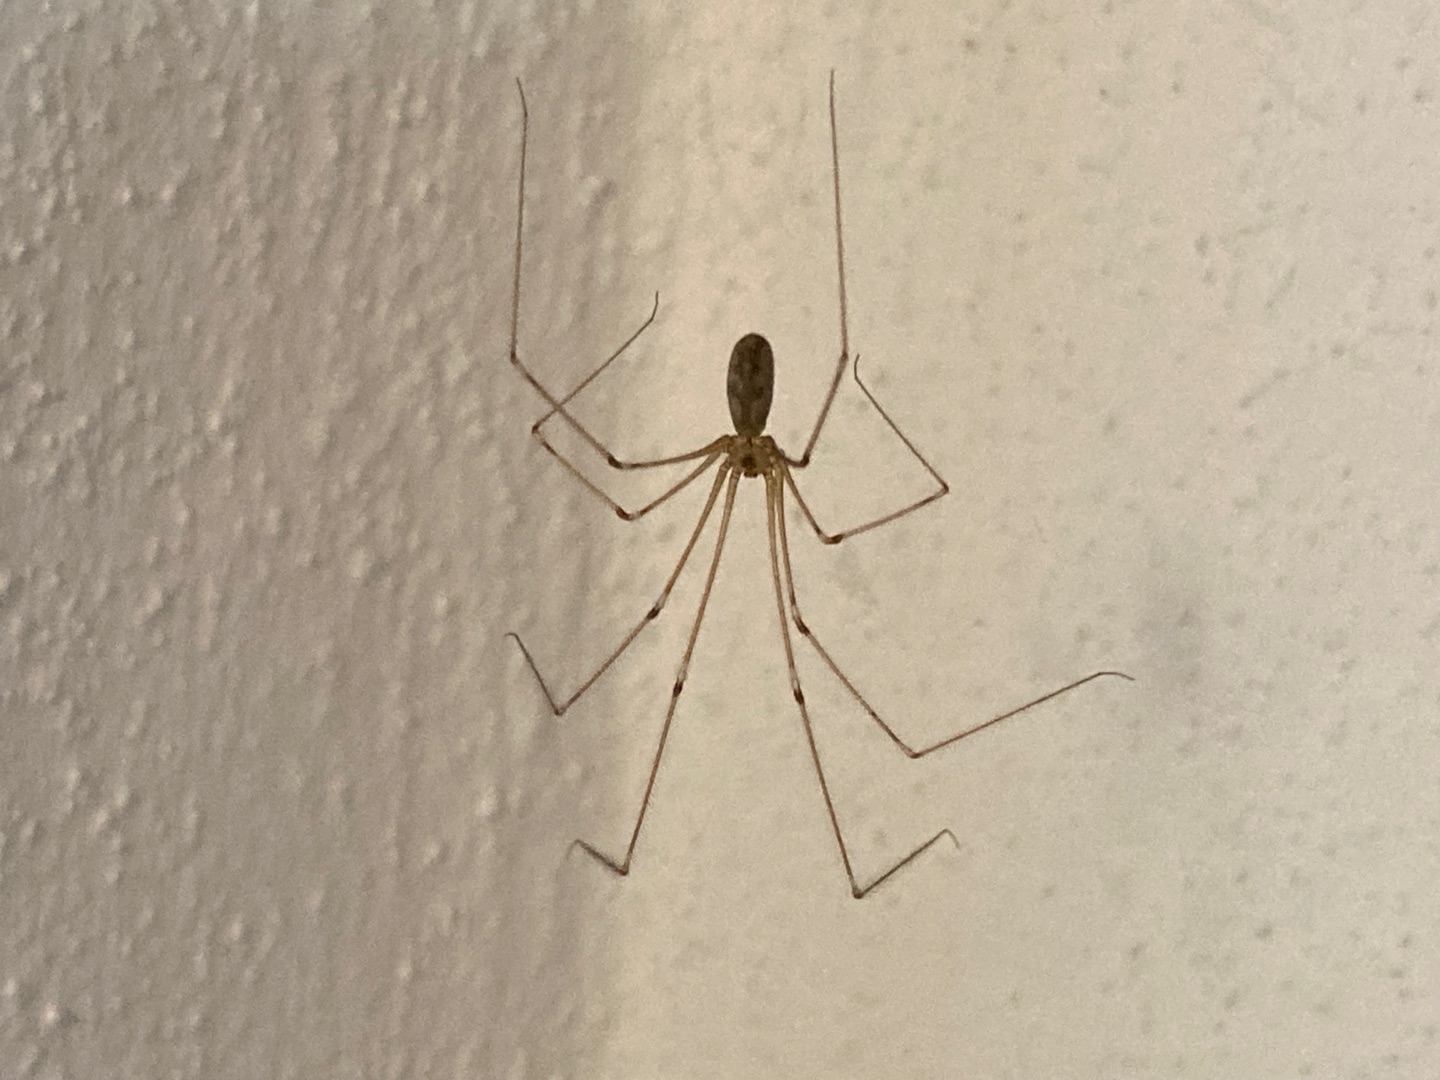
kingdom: Animalia
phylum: Arthropoda
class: Arachnida
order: Araneae
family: Pholcidae
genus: Pholcus
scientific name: Pholcus phalangioides
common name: Mejeredderkop
